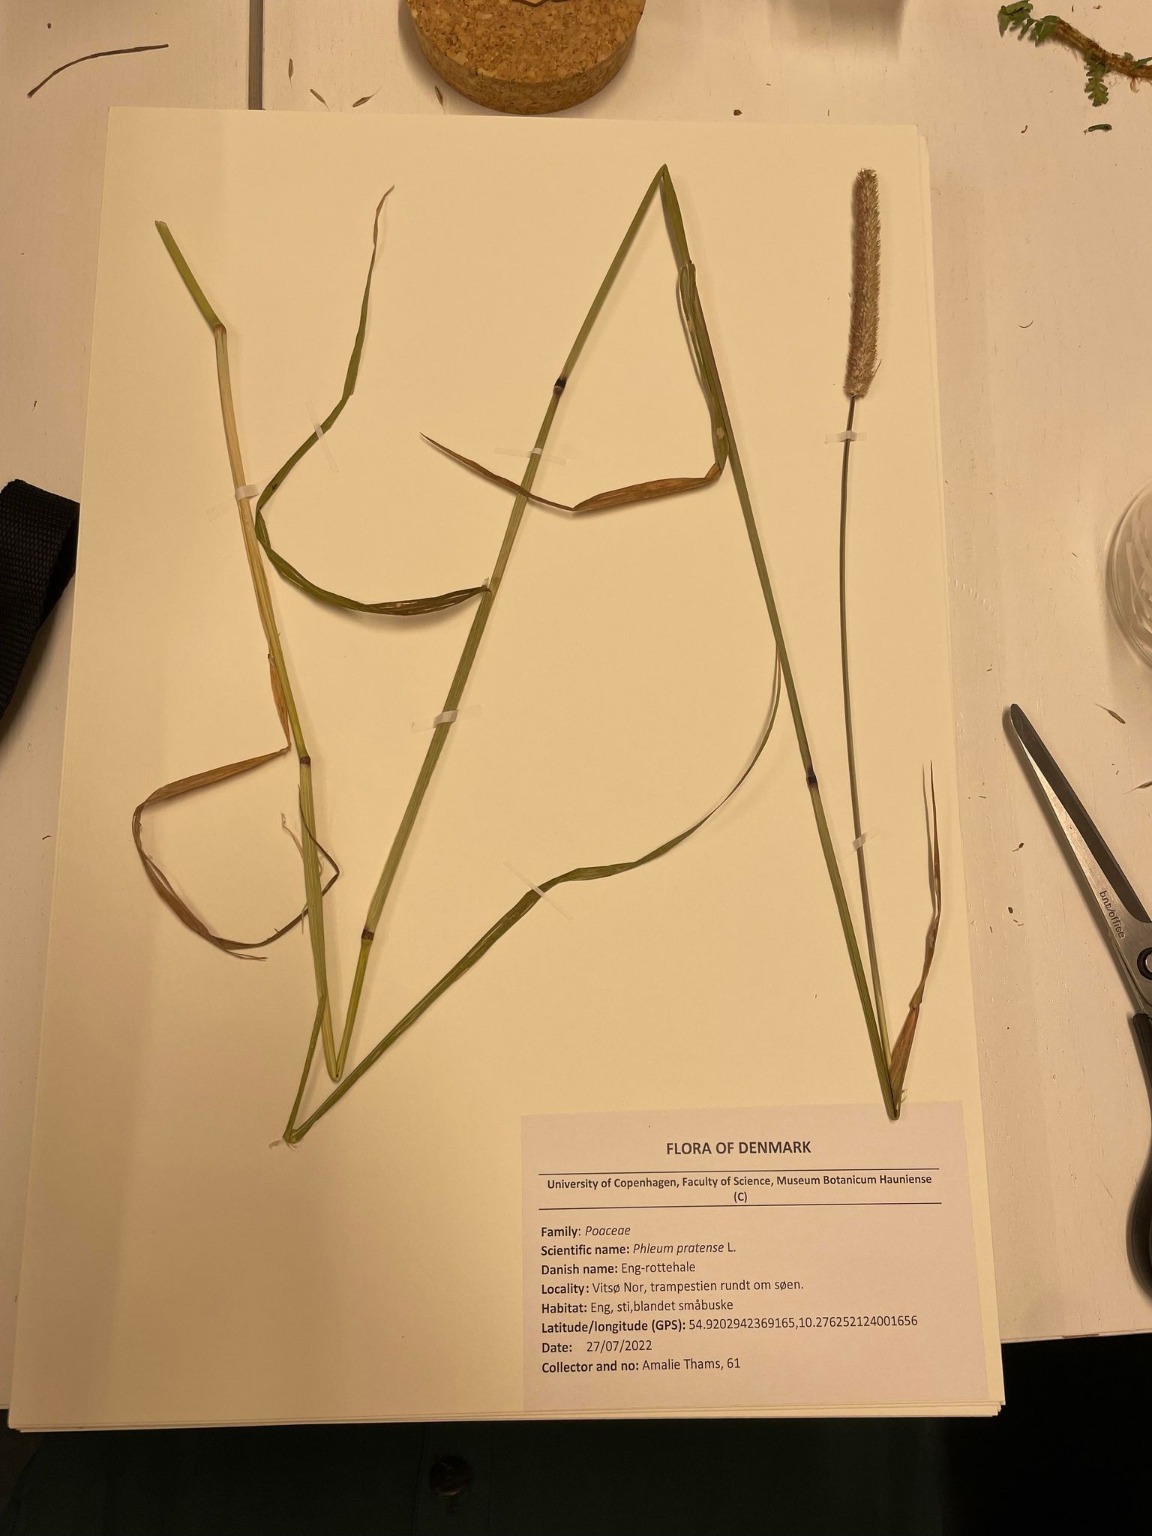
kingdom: Plantae
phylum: Tracheophyta
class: Liliopsida
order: Poales
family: Poaceae
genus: Phleum
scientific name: Phleum pratense
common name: Eng-rottehale
